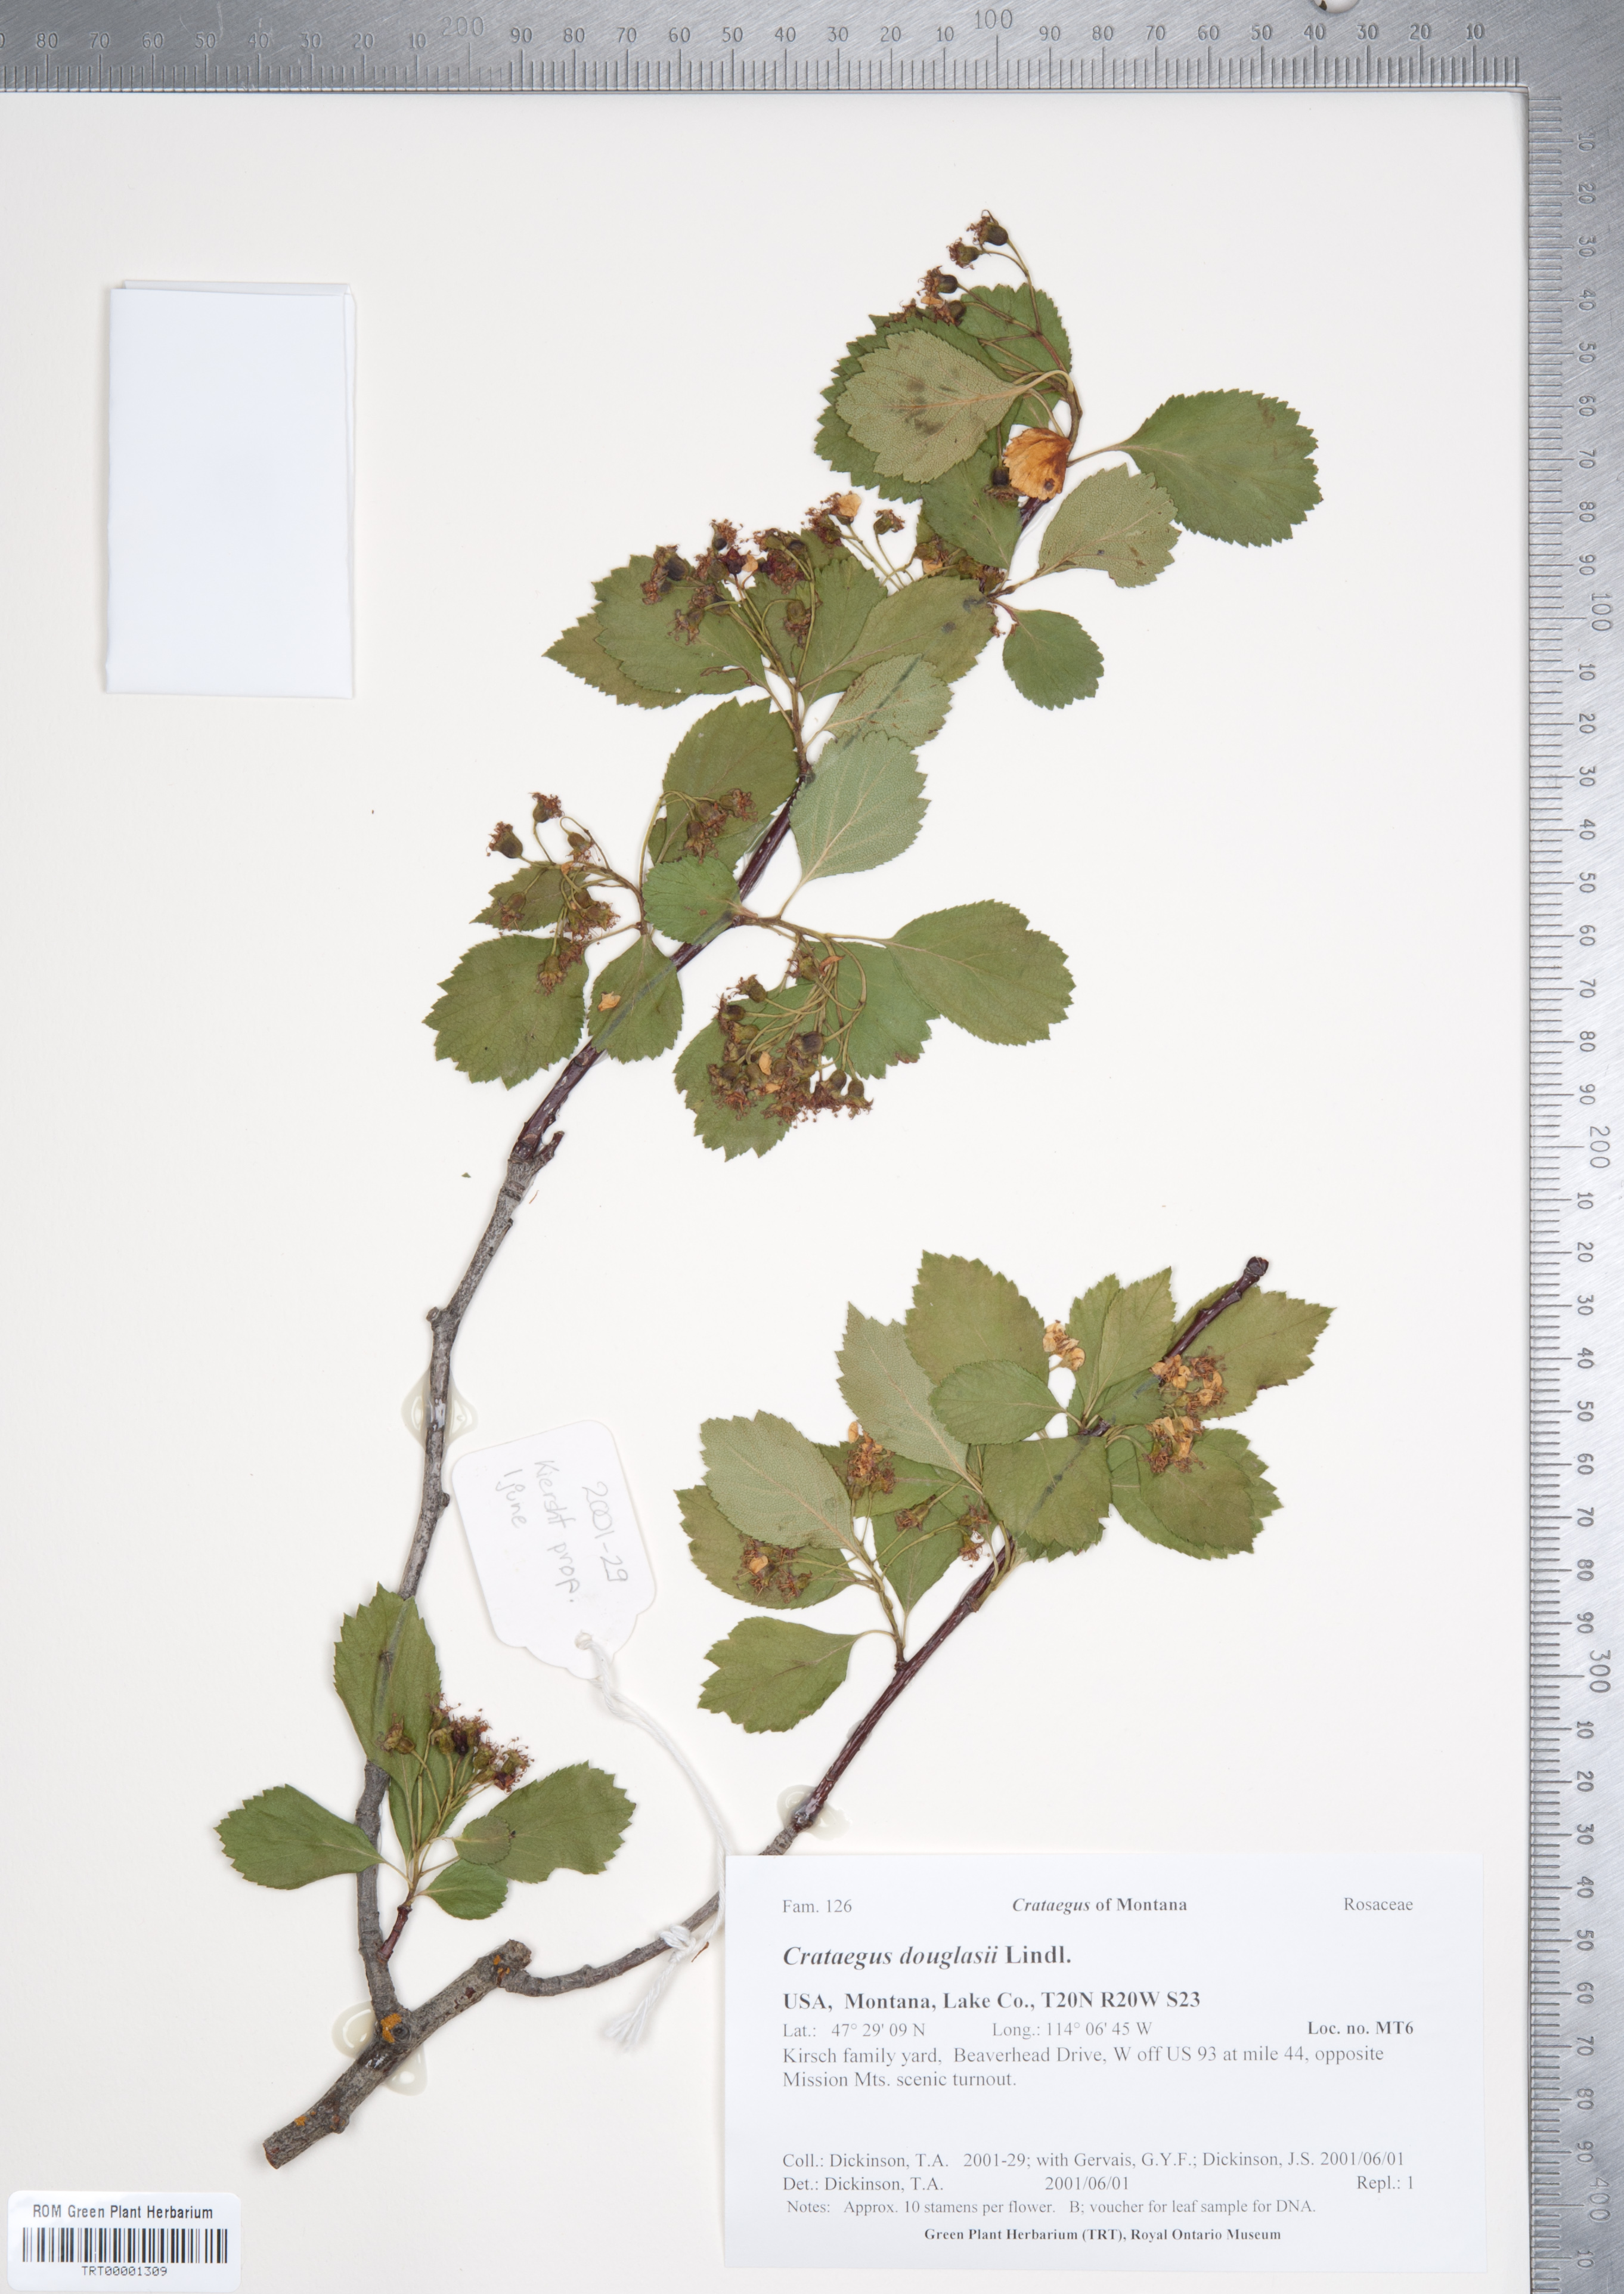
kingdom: Plantae
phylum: Tracheophyta
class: Magnoliopsida
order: Rosales
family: Rosaceae
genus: Crataegus
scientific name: Crataegus douglasii
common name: Black hawthorn
